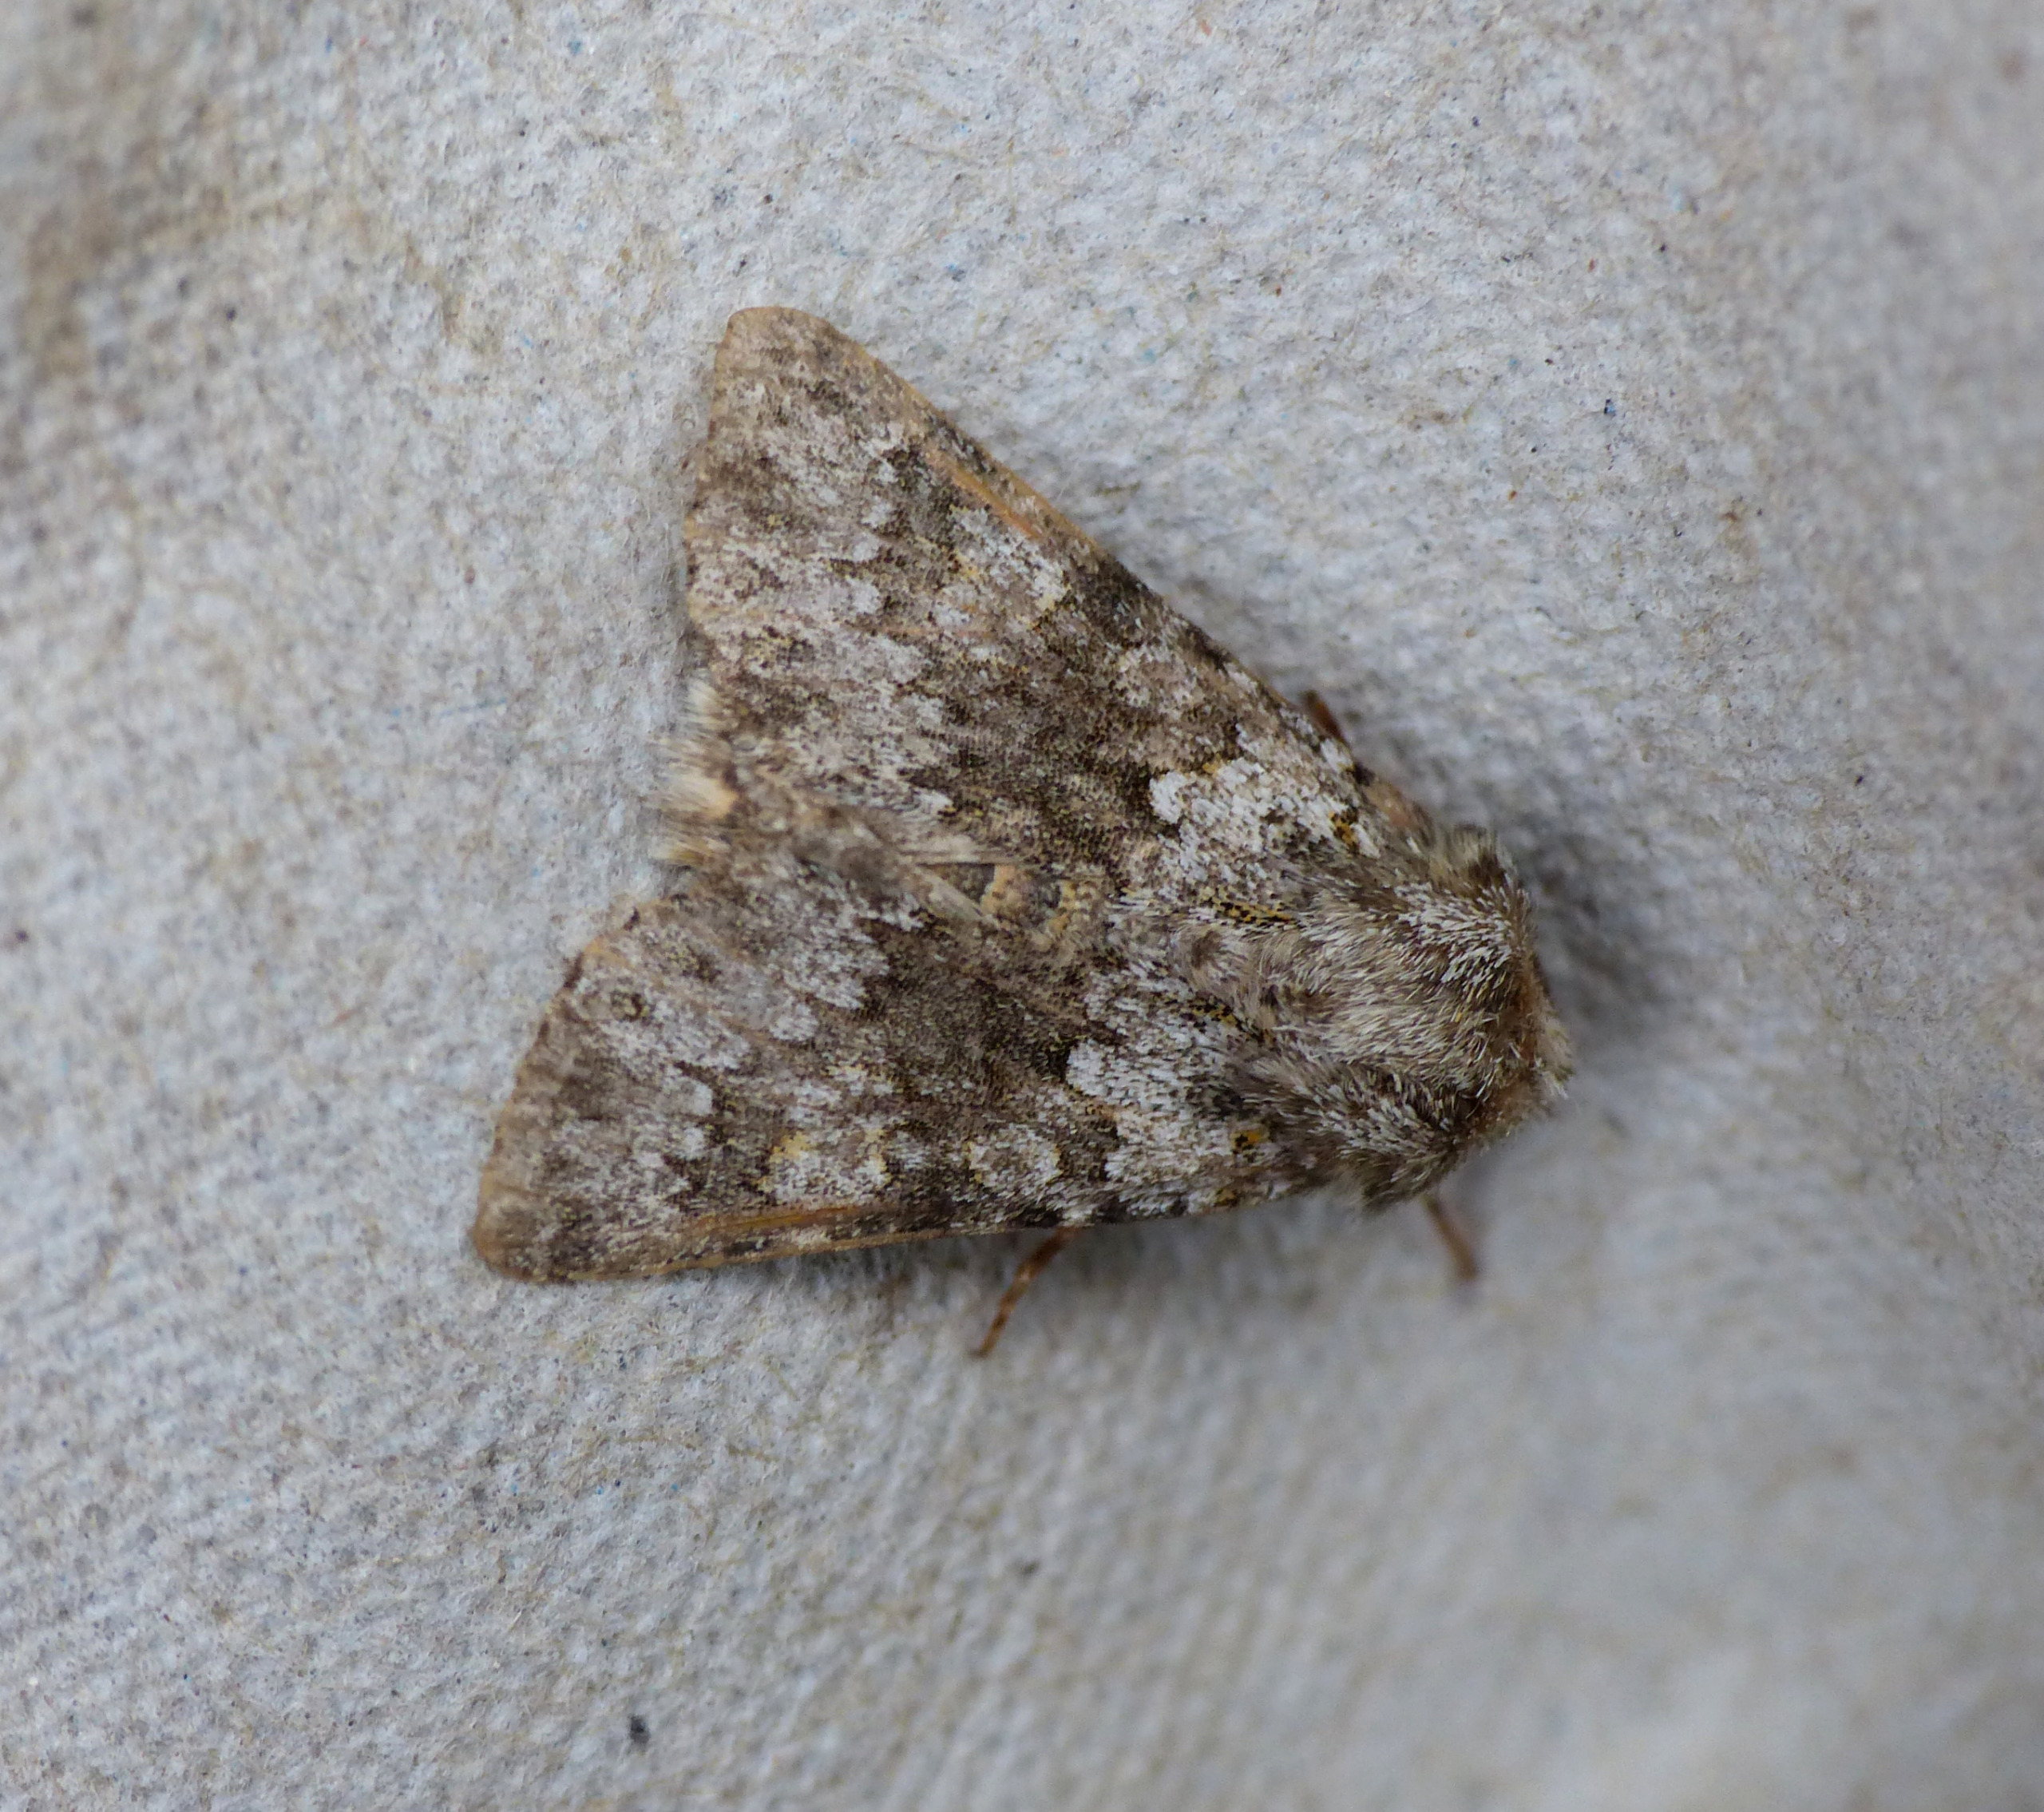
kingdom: Animalia
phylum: Arthropoda
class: Insecta
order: Lepidoptera
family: Noctuidae
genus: Hecatera
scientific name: Hecatera dysodea
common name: Tornet salat-ugle
